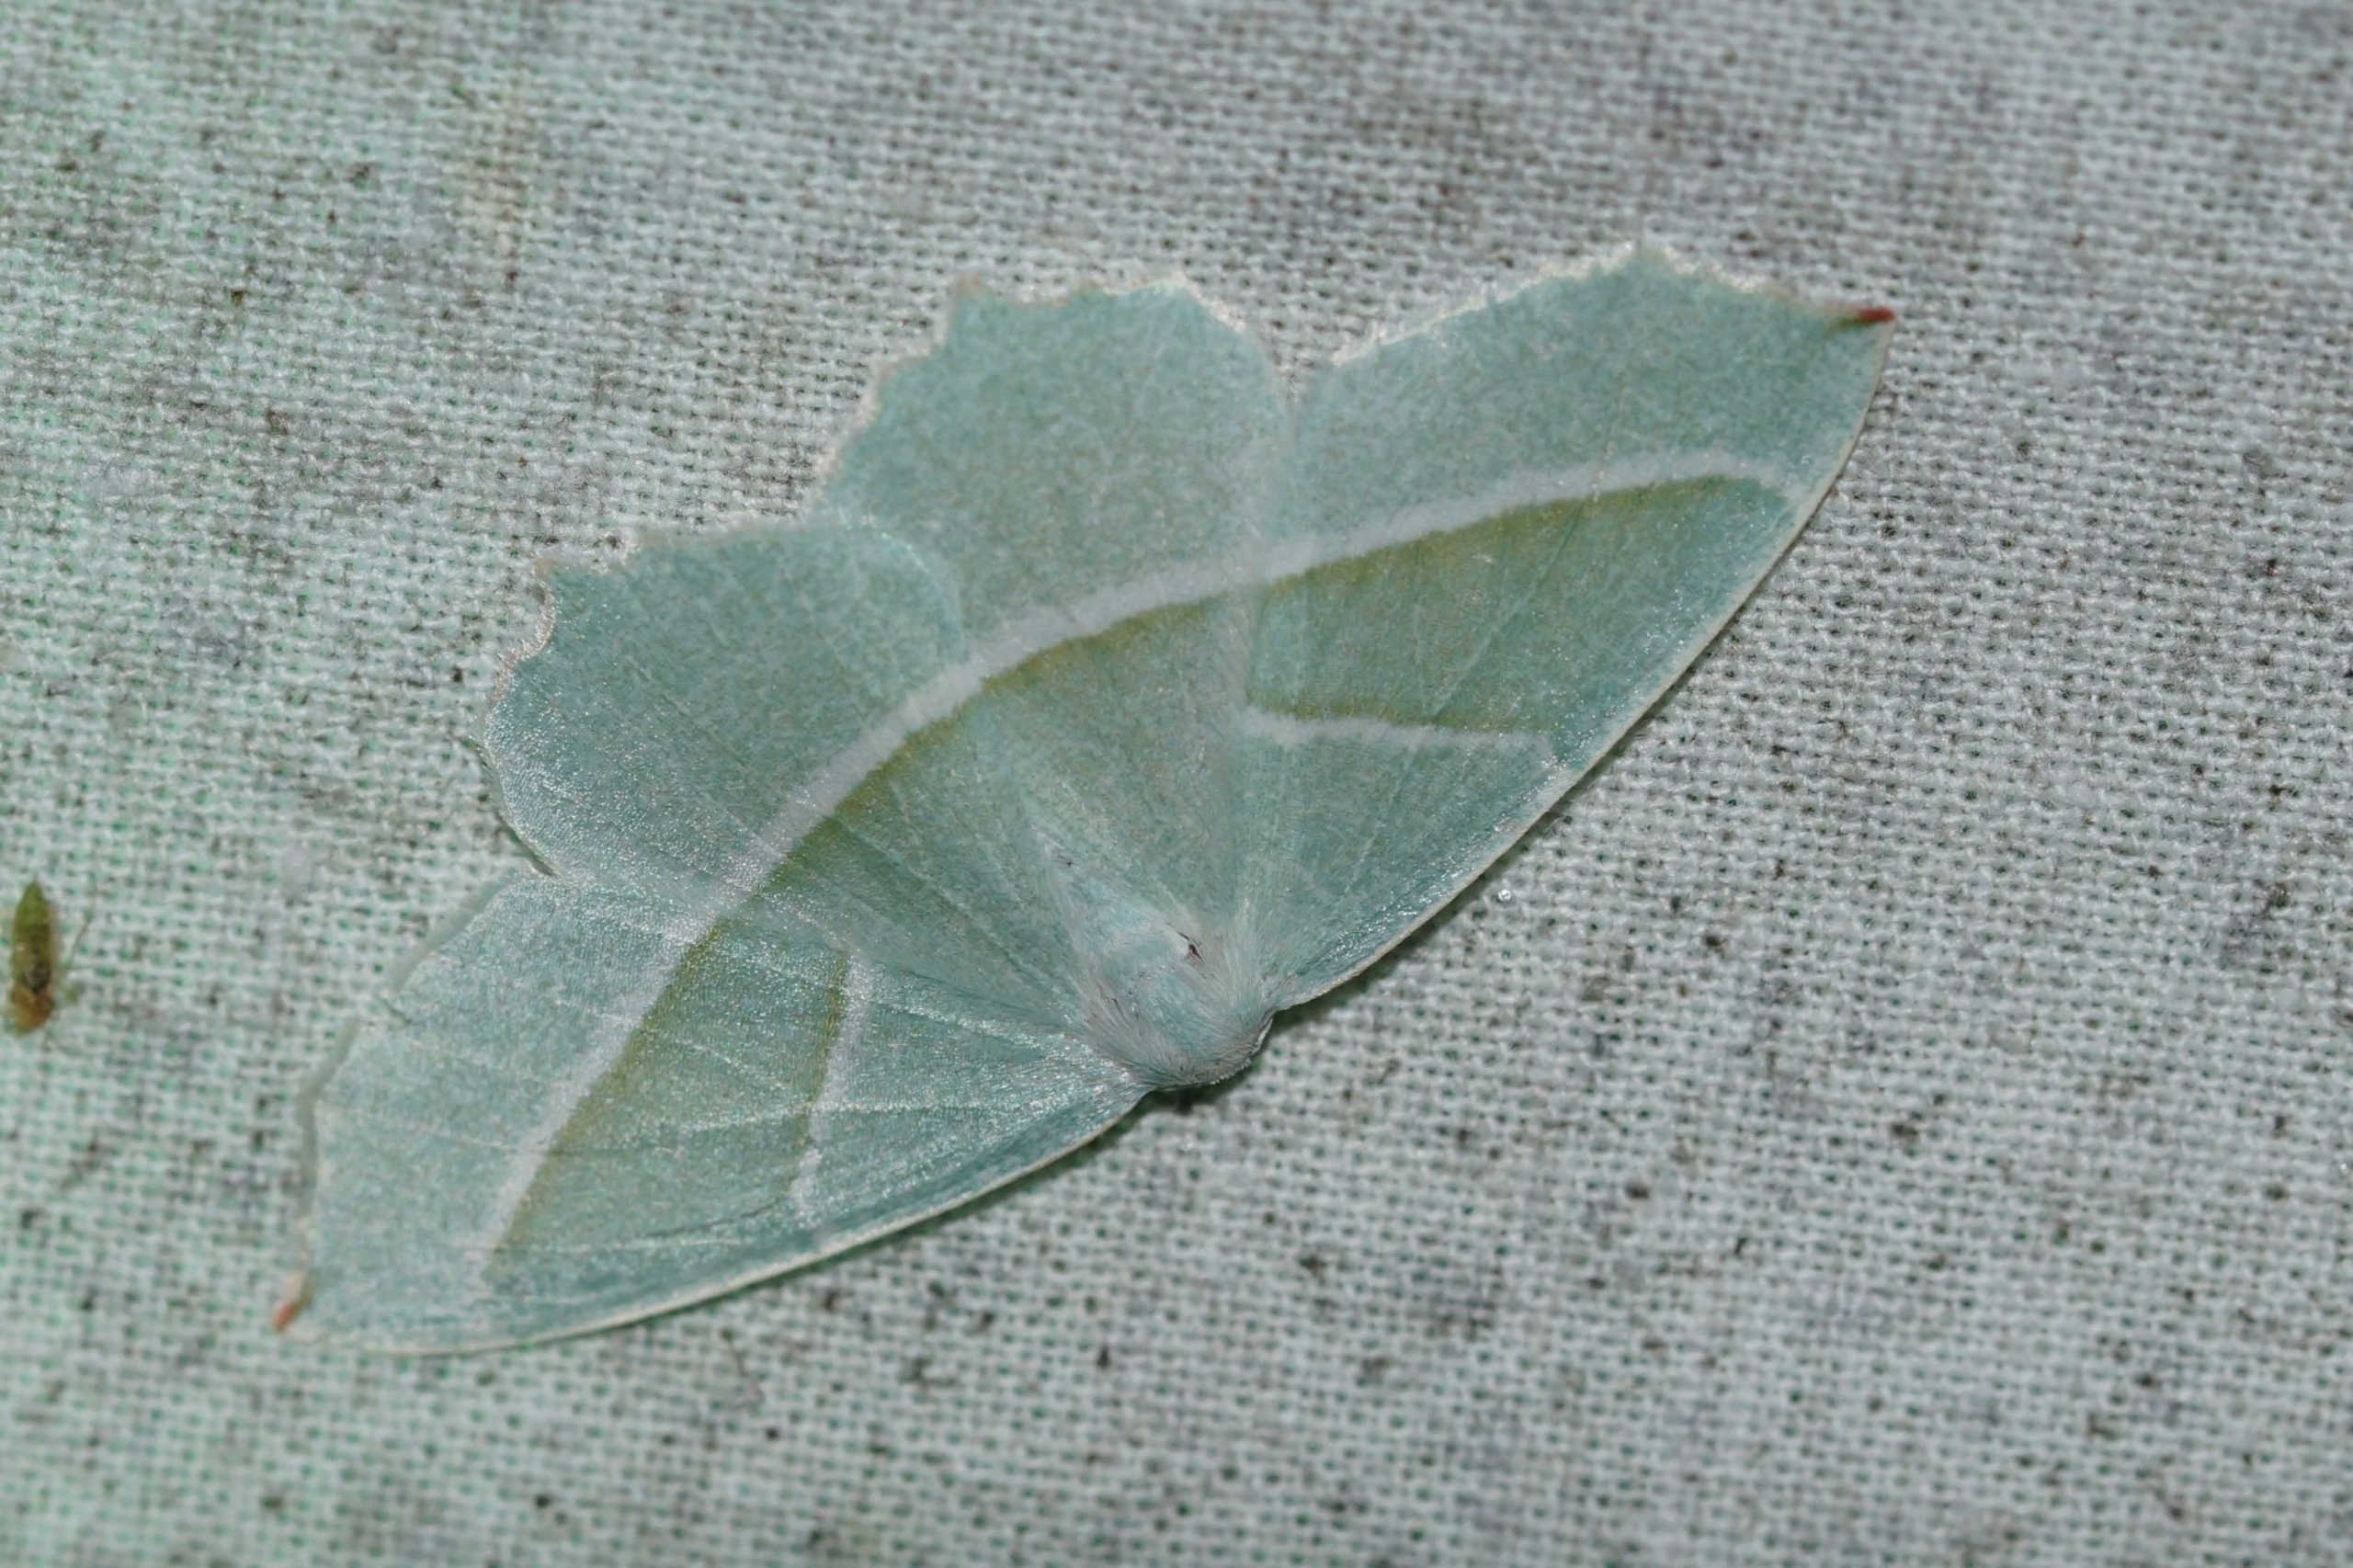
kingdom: Animalia
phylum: Arthropoda
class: Insecta
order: Lepidoptera
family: Geometridae
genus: Campaea
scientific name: Campaea margaritaria
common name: Perlemåler
